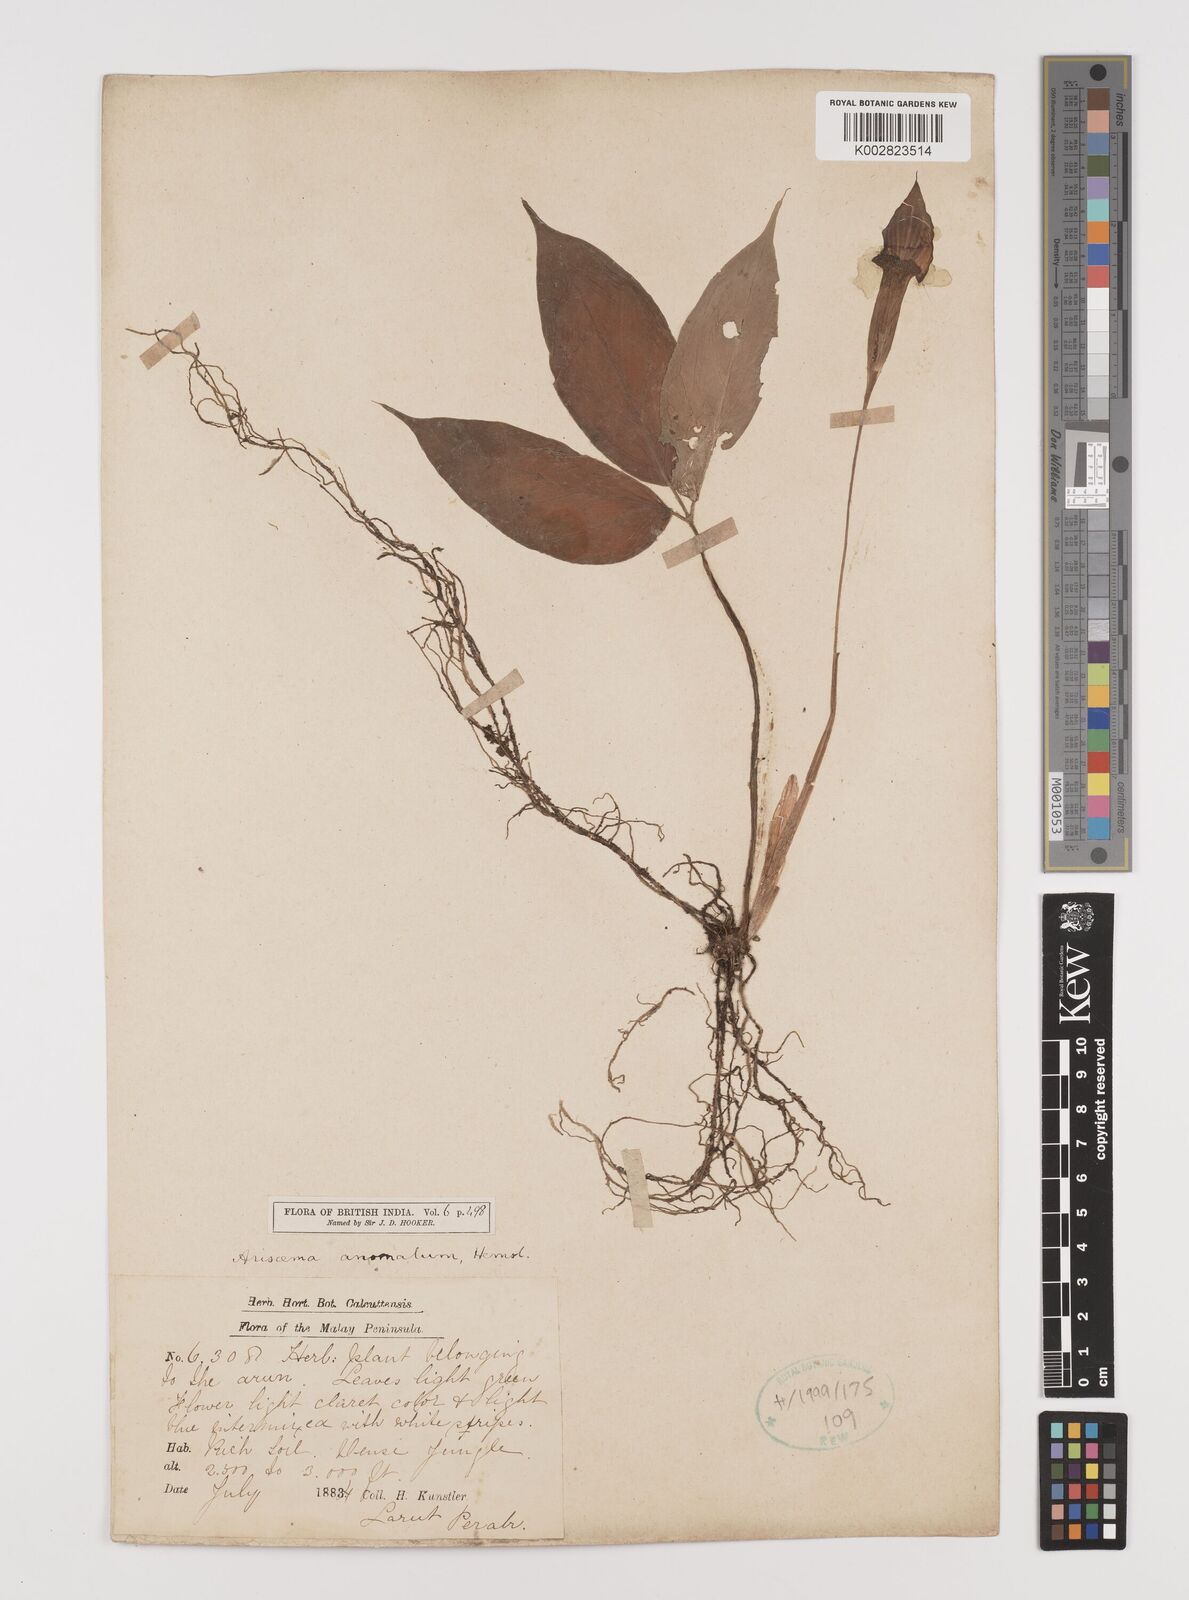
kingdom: Plantae
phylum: Tracheophyta
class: Liliopsida
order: Alismatales
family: Araceae
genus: Arisaema
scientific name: Arisaema anomalum
